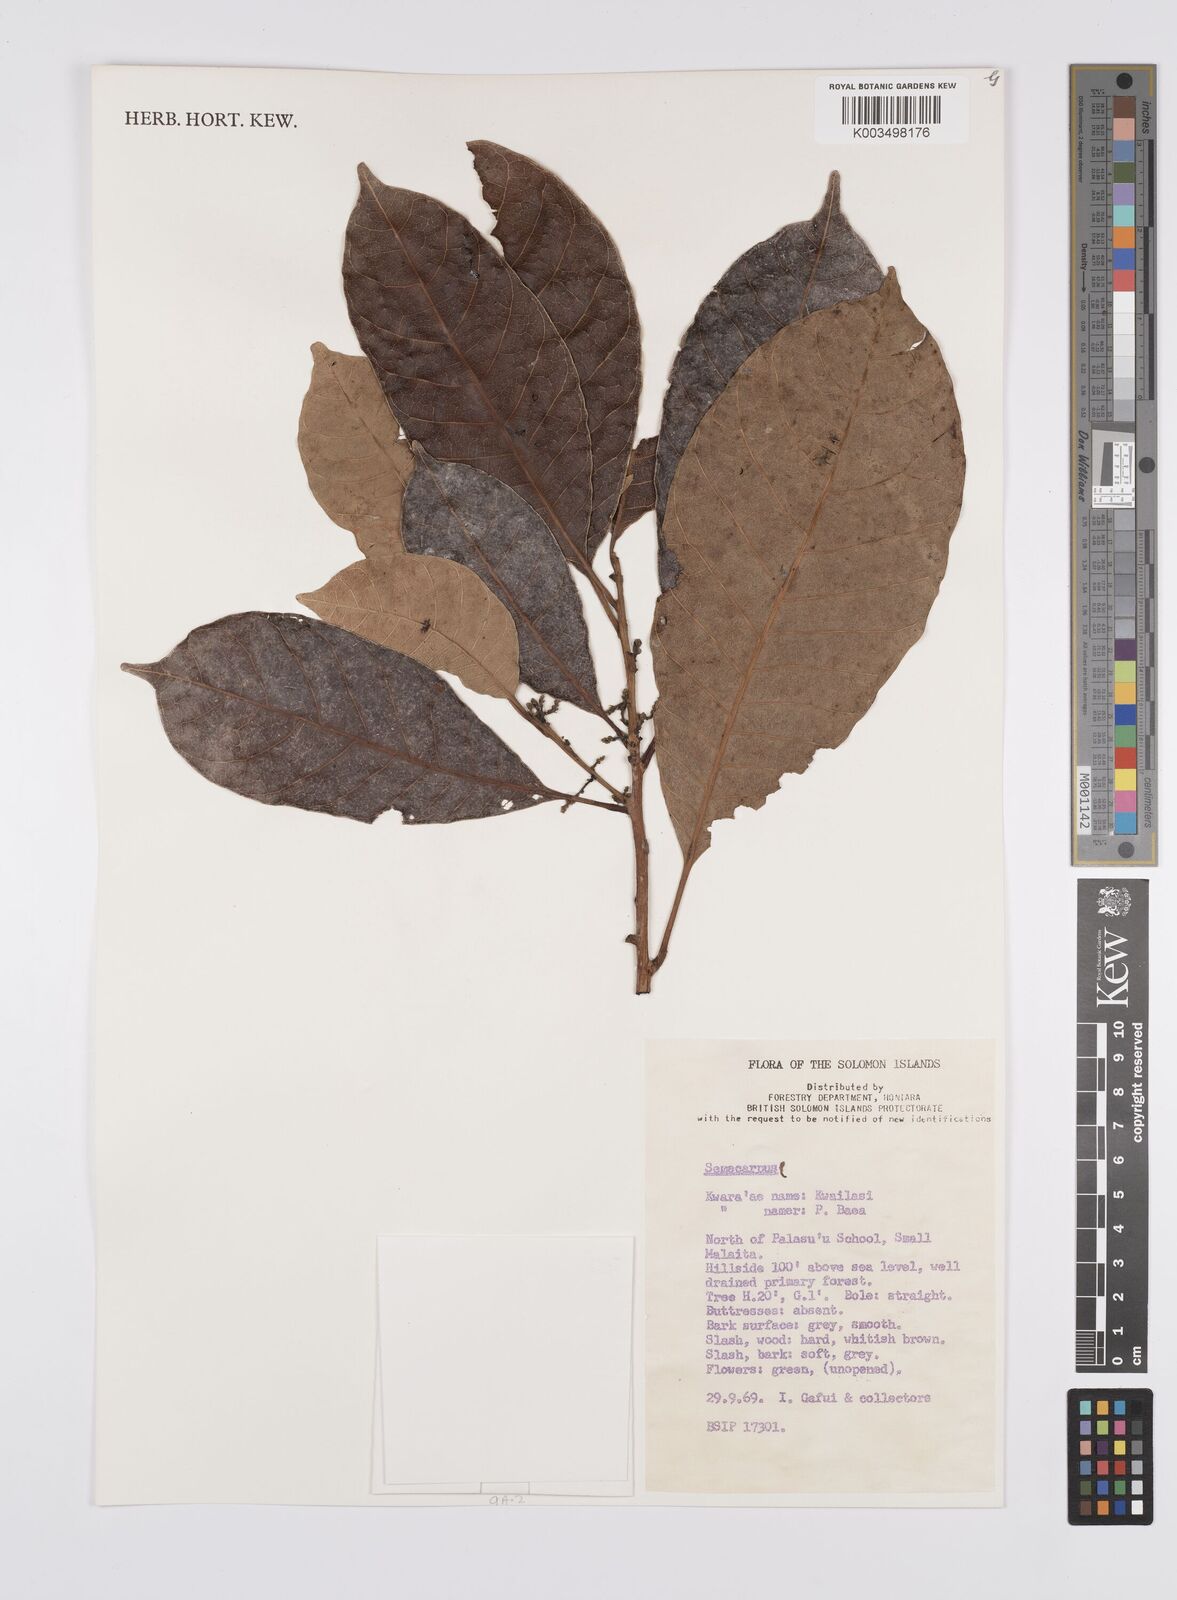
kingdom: Plantae
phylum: Tracheophyta
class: Magnoliopsida
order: Sapindales
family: Anacardiaceae
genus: Semecarpus
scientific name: Semecarpus
